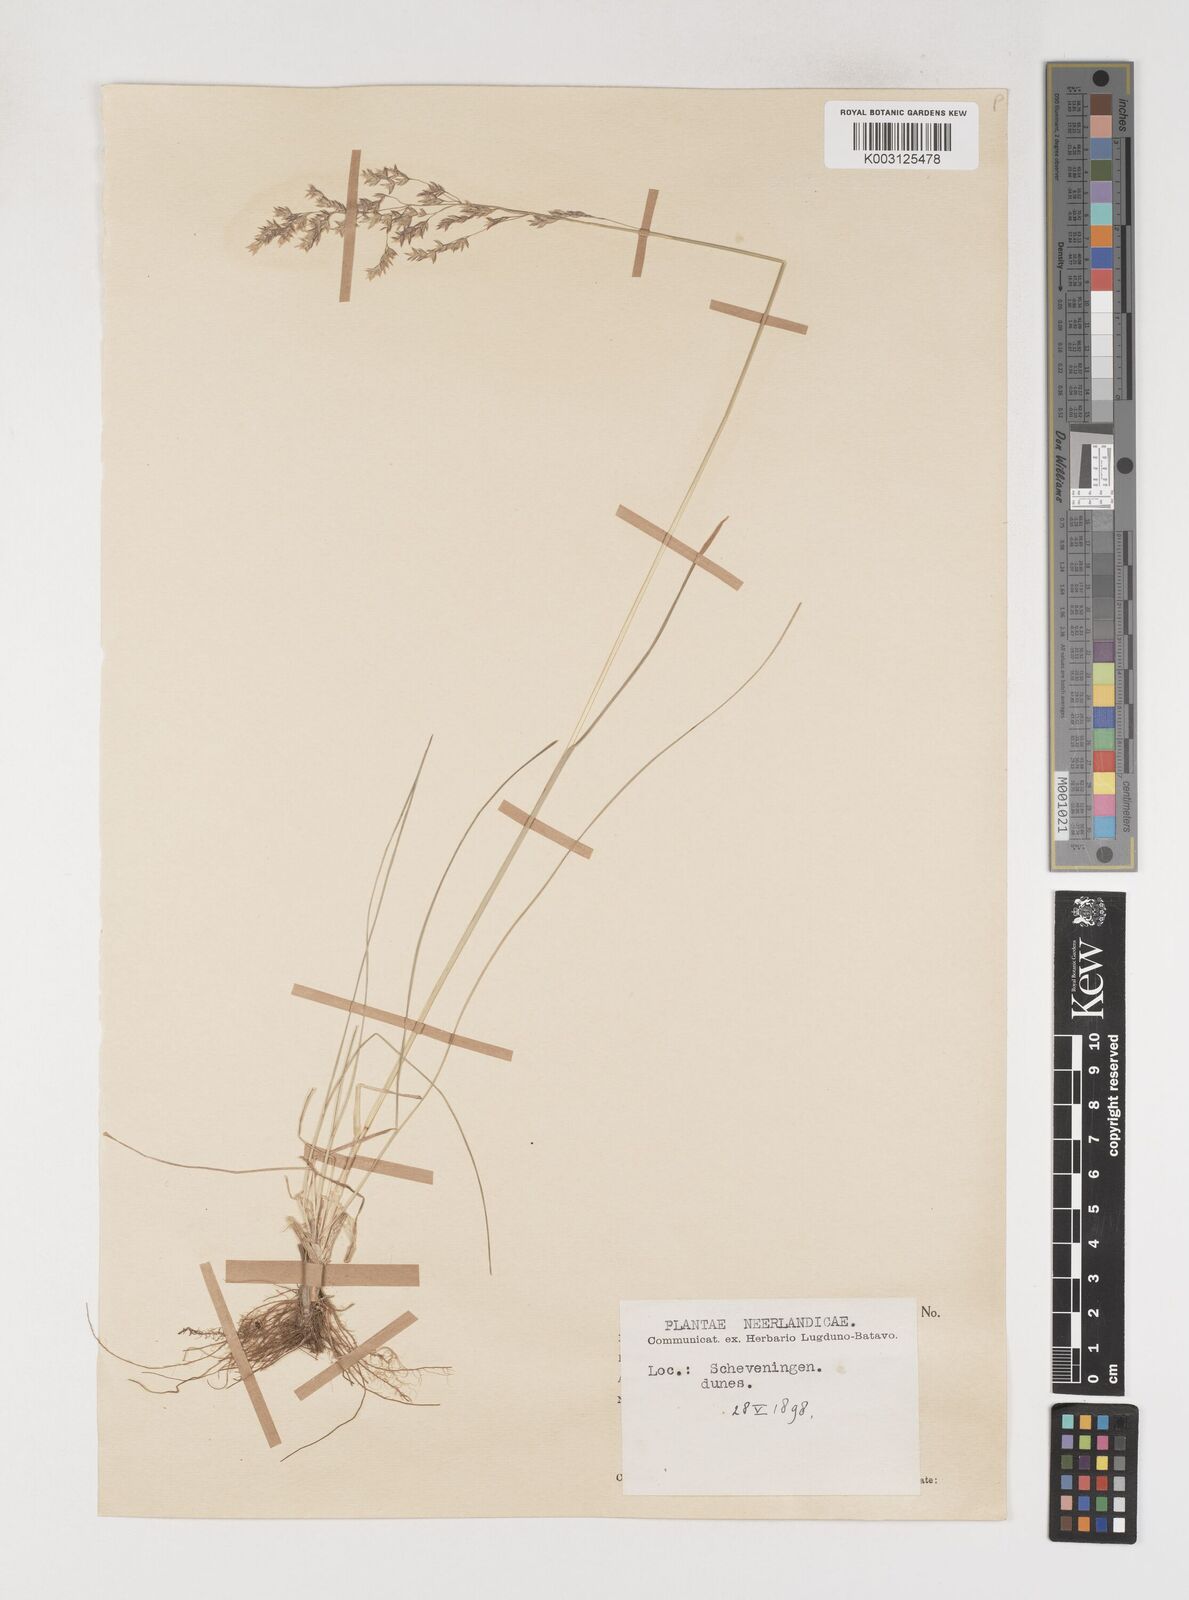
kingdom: Plantae
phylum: Tracheophyta
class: Liliopsida
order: Poales
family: Poaceae
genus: Poa
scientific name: Poa angustifolia
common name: Narrow-leaved meadow-grass
